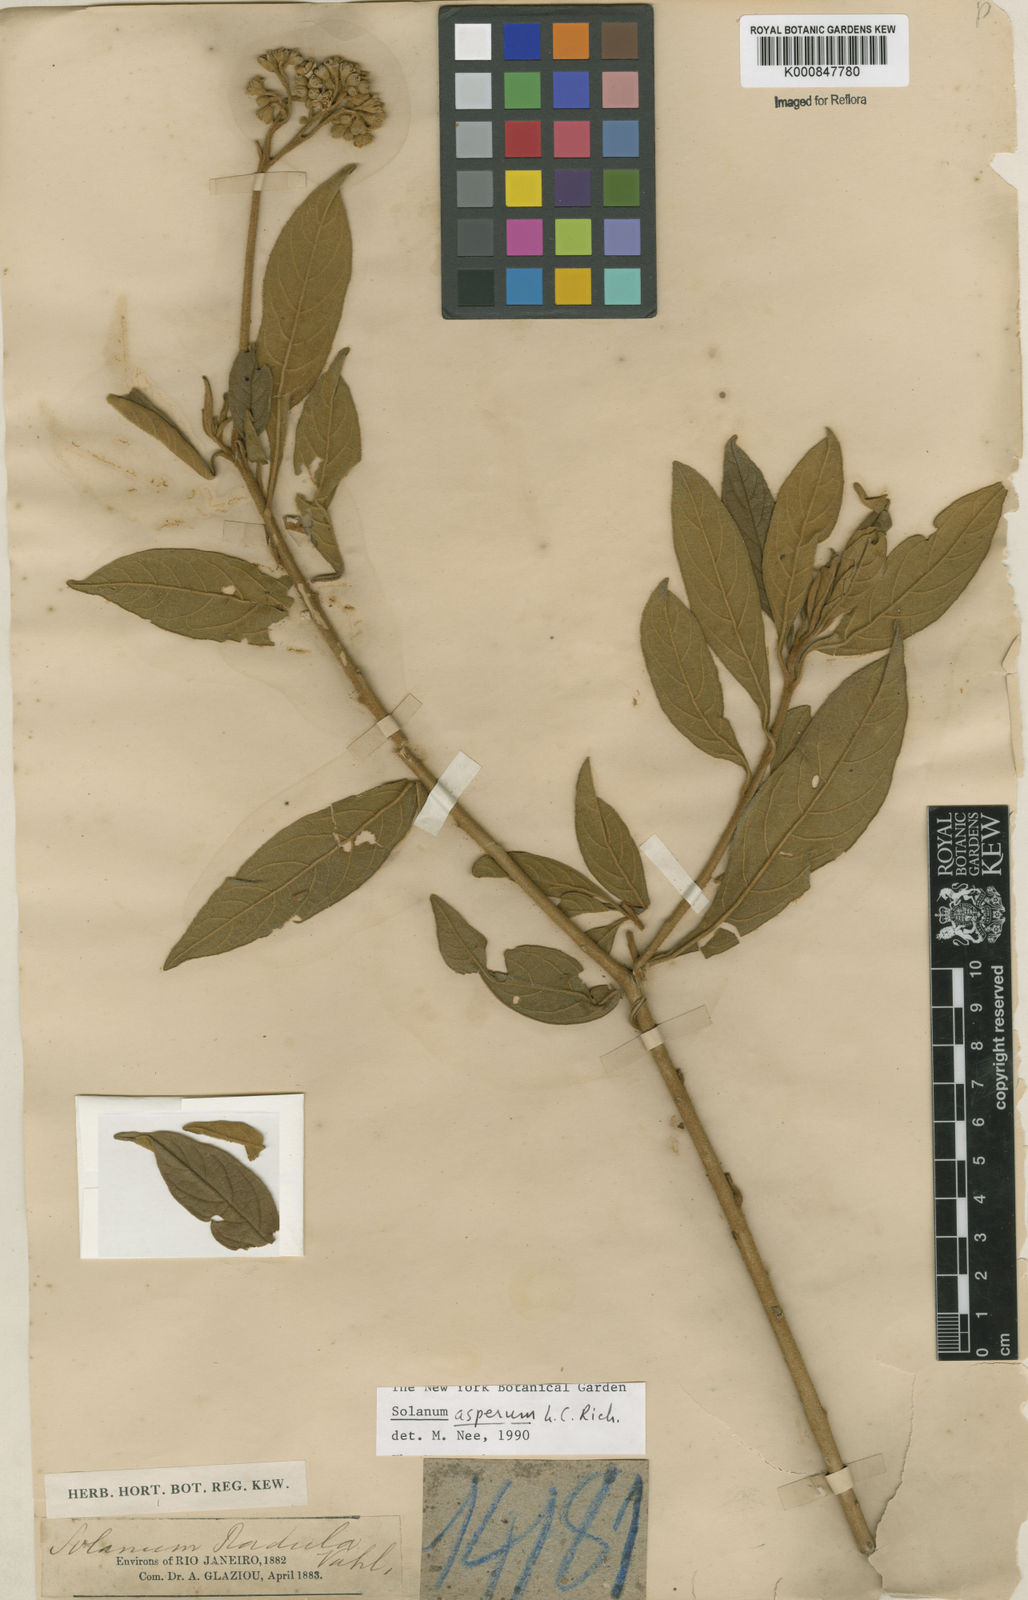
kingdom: Plantae
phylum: Tracheophyta
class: Magnoliopsida
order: Solanales
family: Solanaceae
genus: Solanum
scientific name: Solanum asperum
